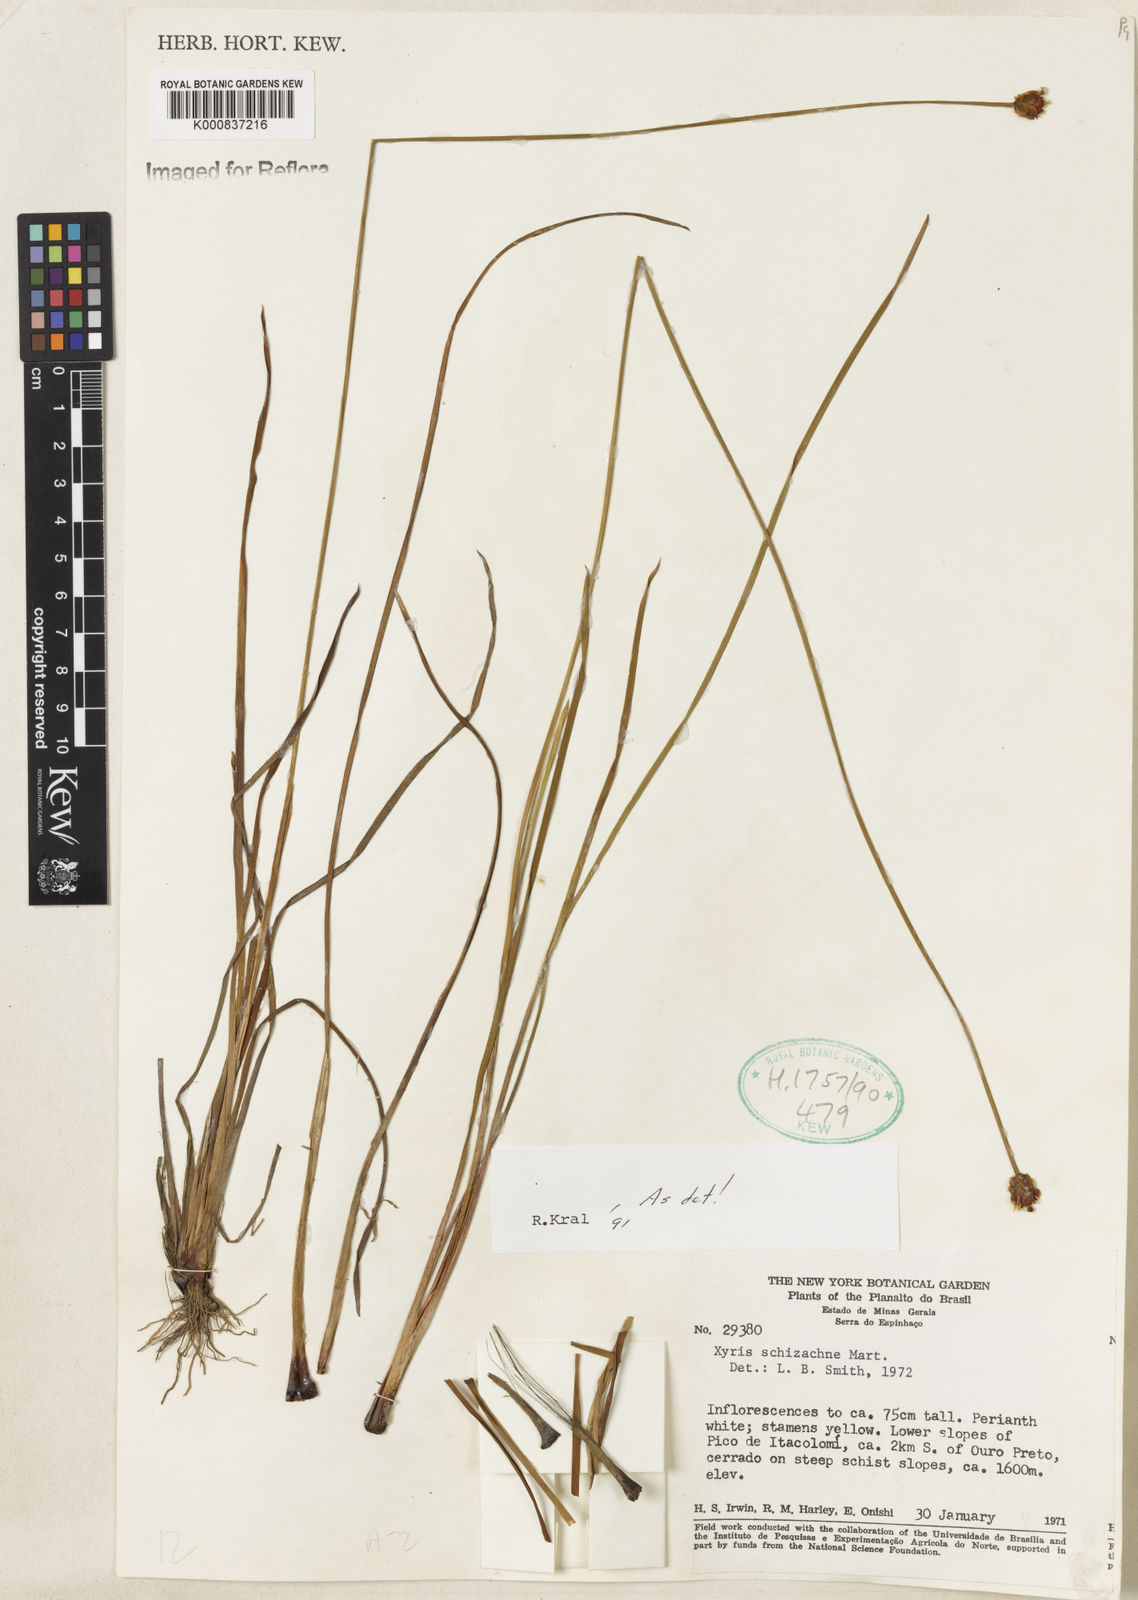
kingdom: Plantae
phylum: Tracheophyta
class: Liliopsida
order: Poales
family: Xyridaceae
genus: Xyris
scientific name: Xyris schizachne
